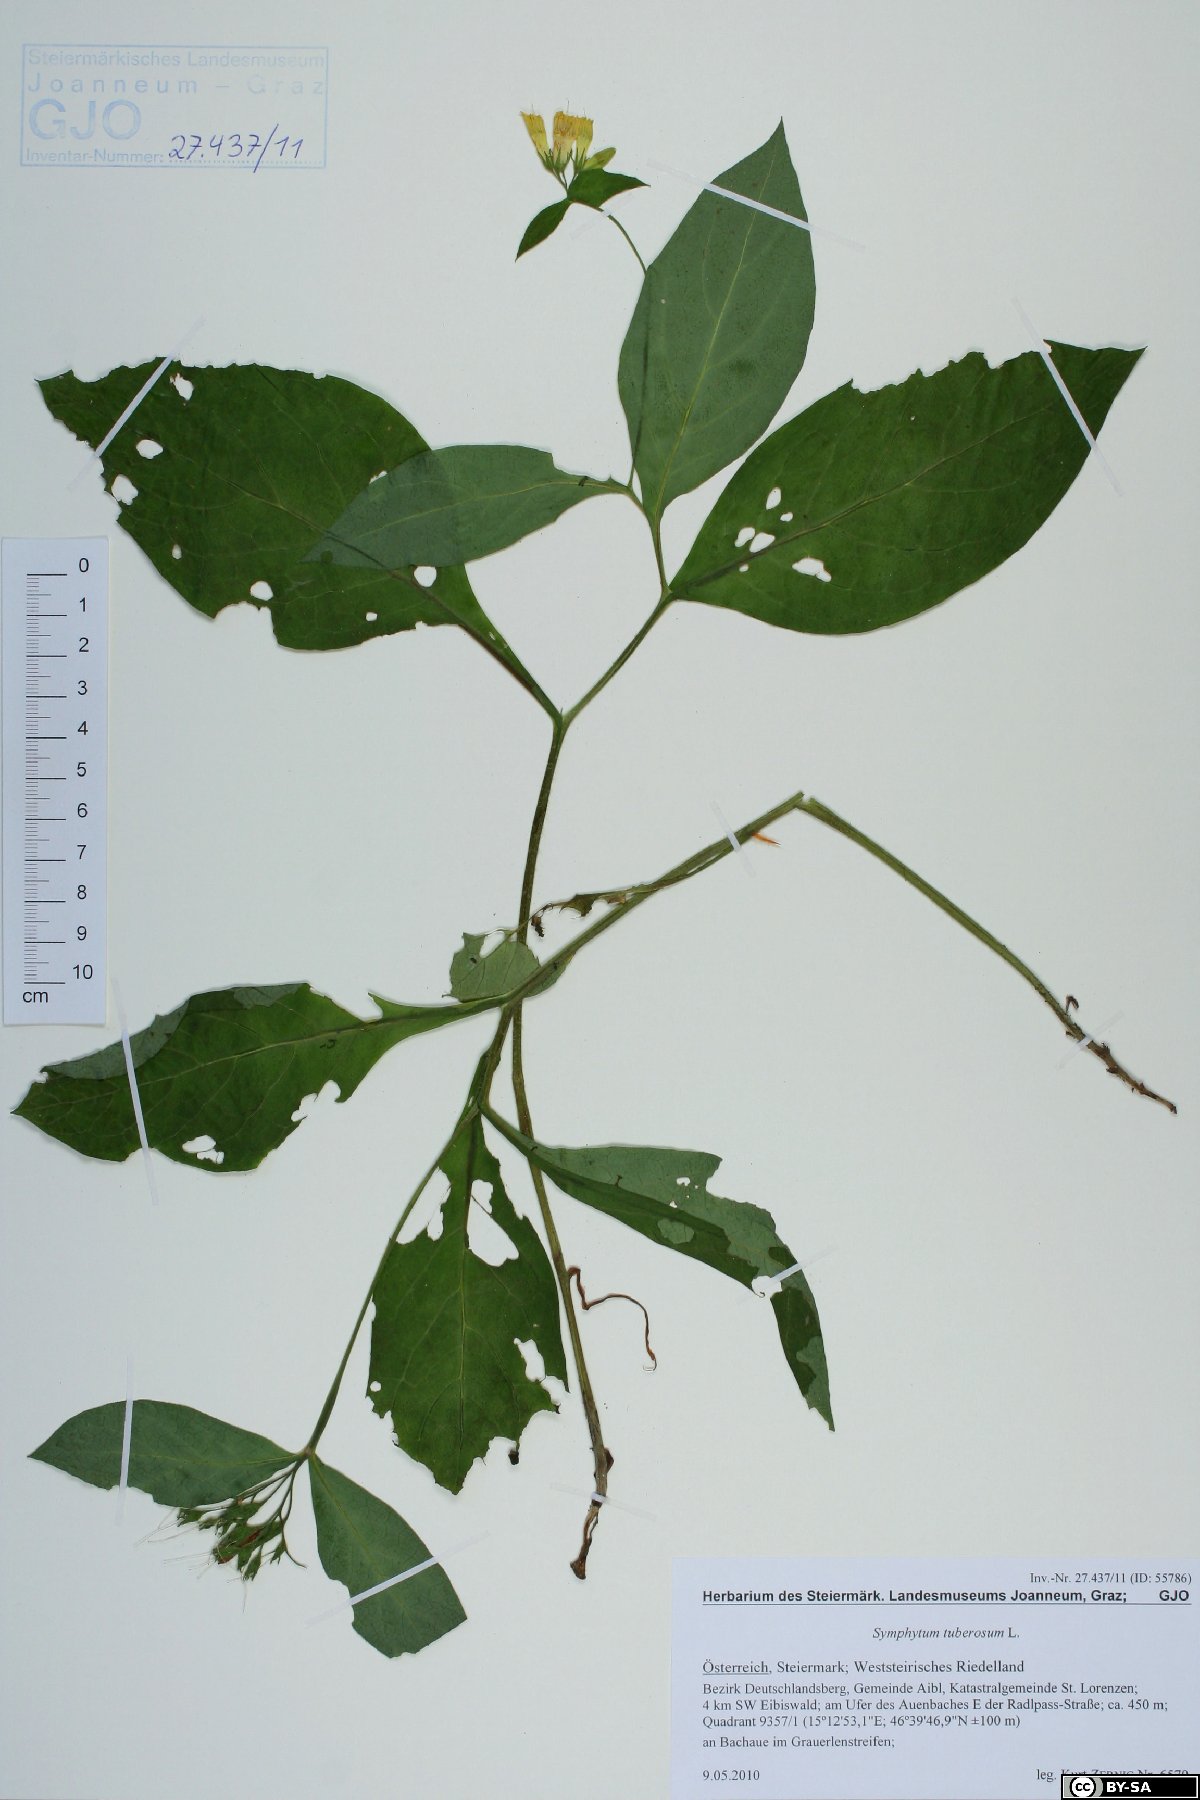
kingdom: Plantae
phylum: Tracheophyta
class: Magnoliopsida
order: Boraginales
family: Boraginaceae
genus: Symphytum
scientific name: Symphytum tuberosum
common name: Tuberous comfrey
